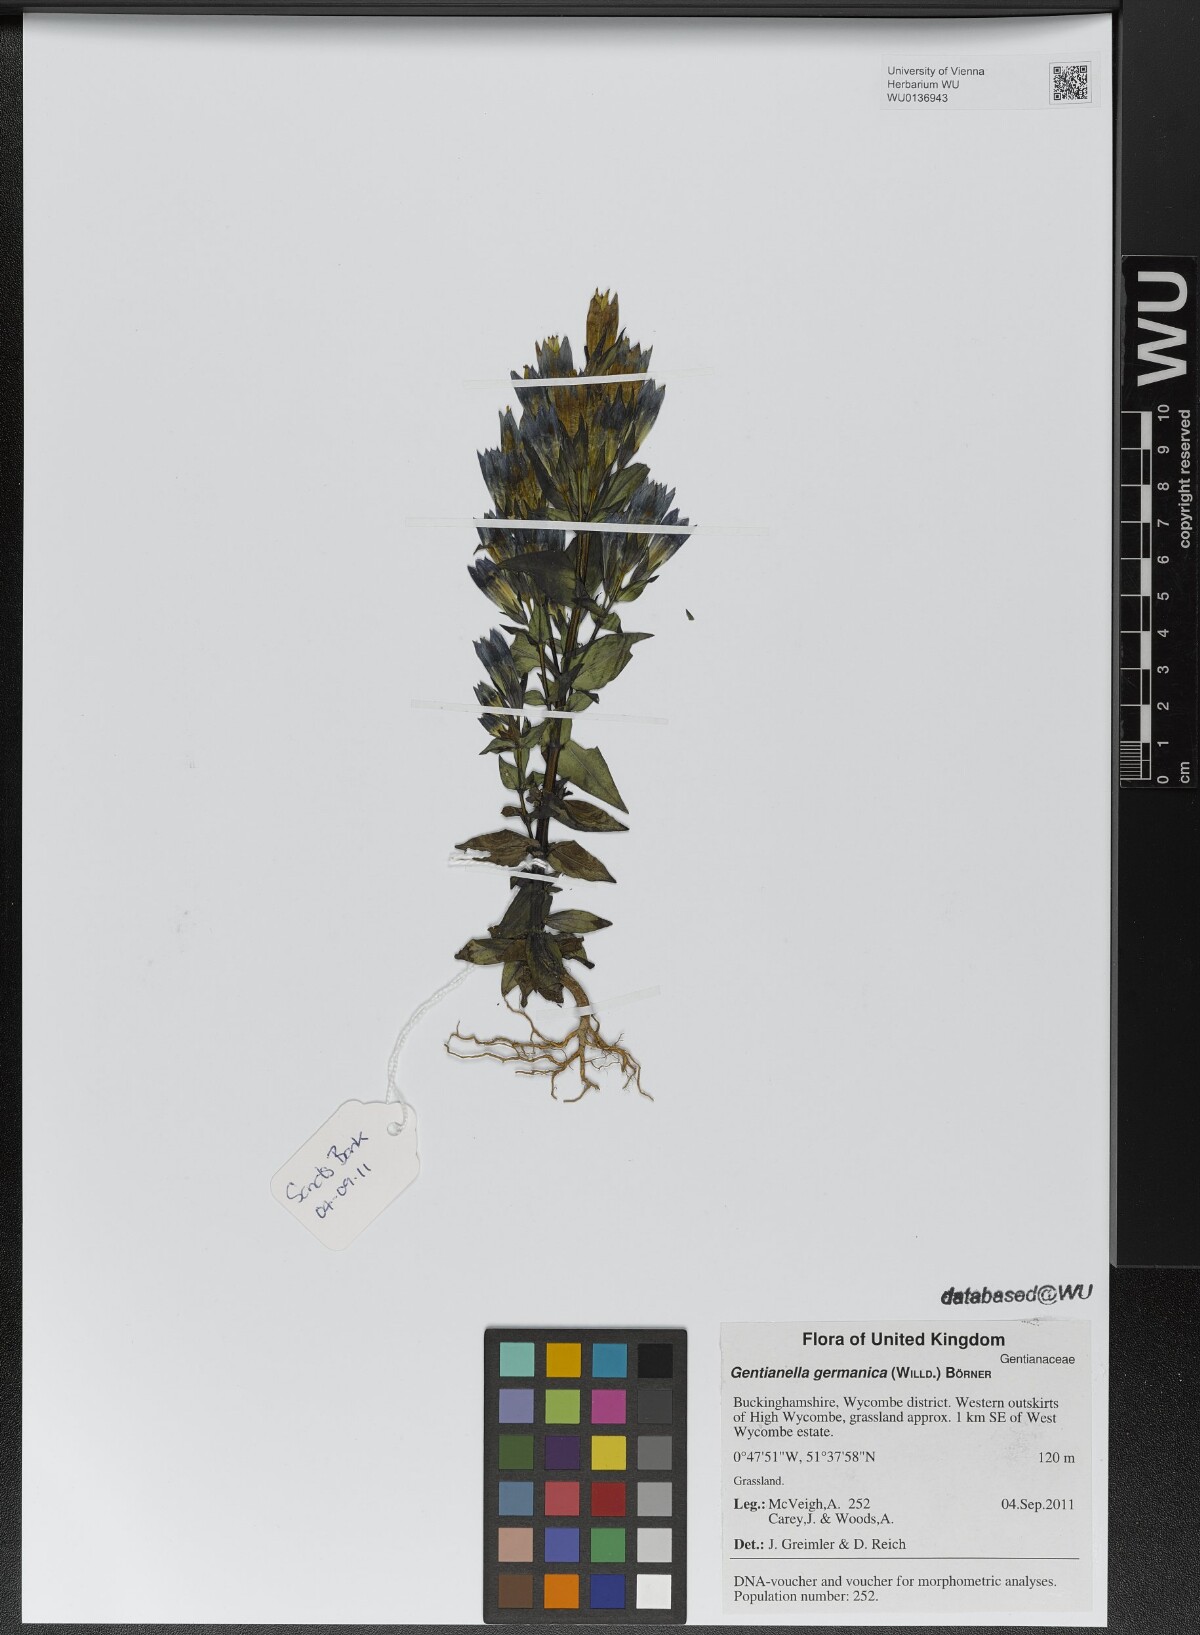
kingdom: Plantae
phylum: Tracheophyta
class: Magnoliopsida
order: Gentianales
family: Gentianaceae
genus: Gentianella
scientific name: Gentianella germanica
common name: Chiltern-gentian
